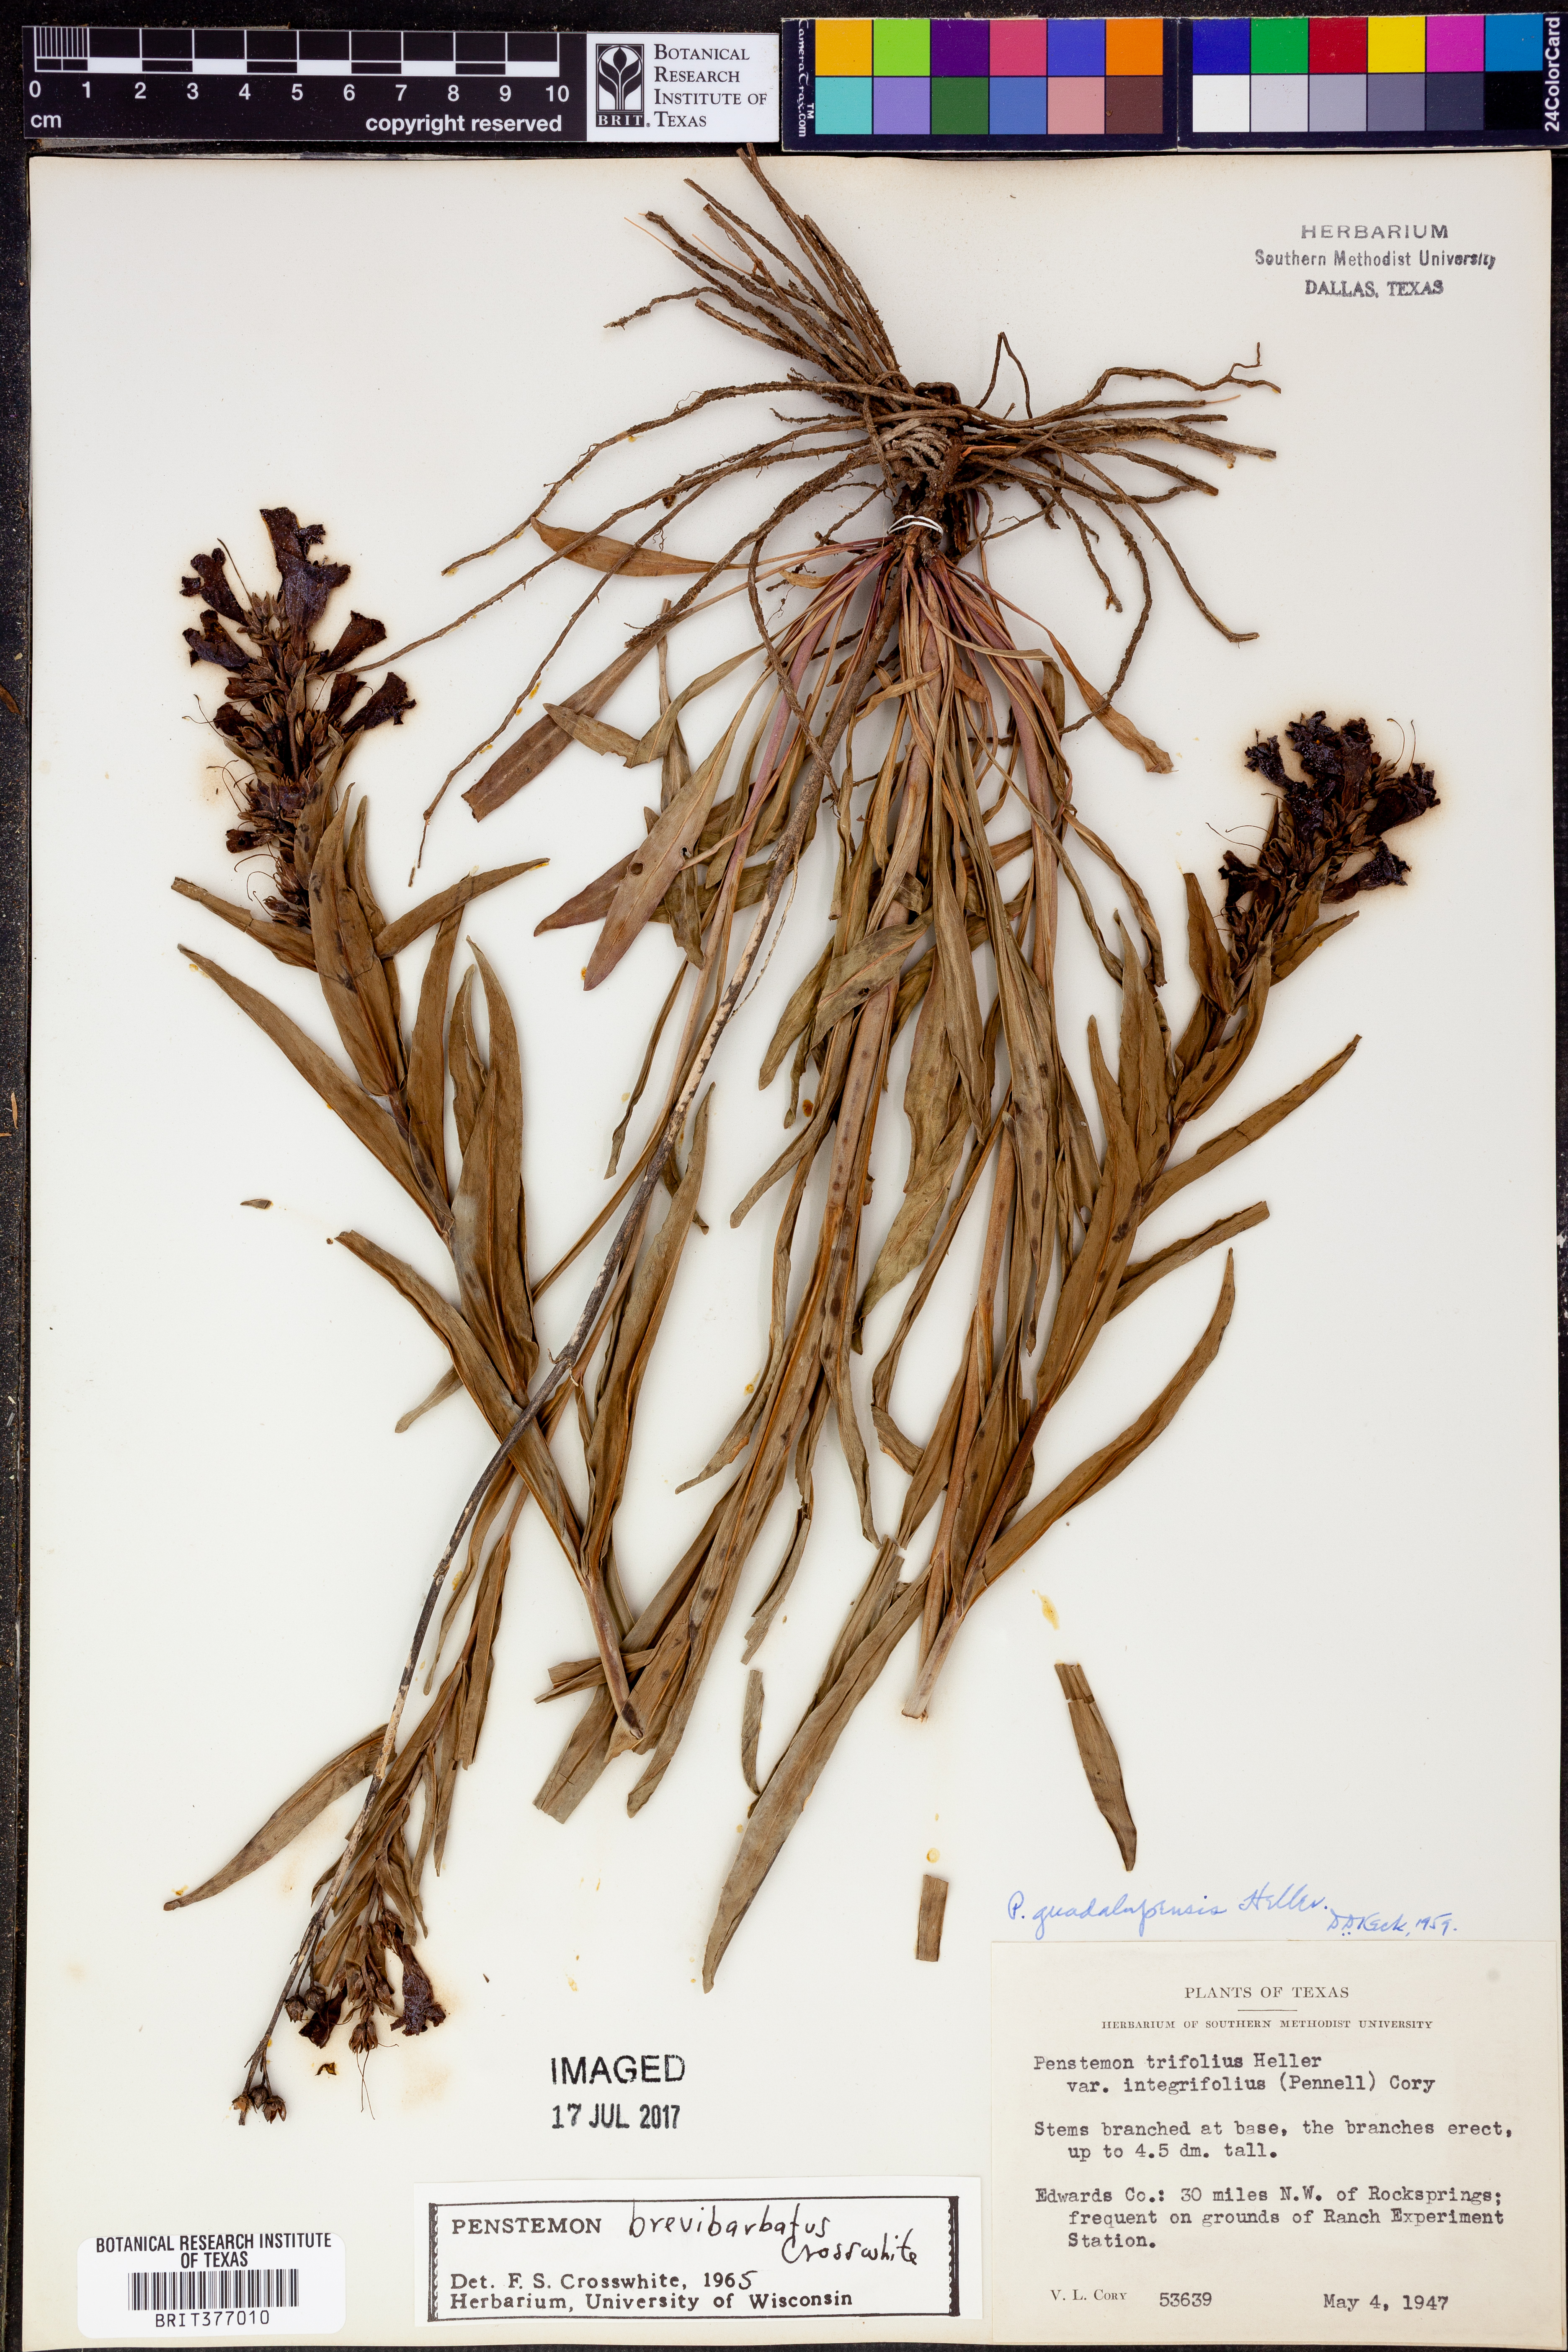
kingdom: Plantae
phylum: Tracheophyta
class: Magnoliopsida
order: Lamiales
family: Plantaginaceae
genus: Penstemon
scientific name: Penstemon brevibarbatus
